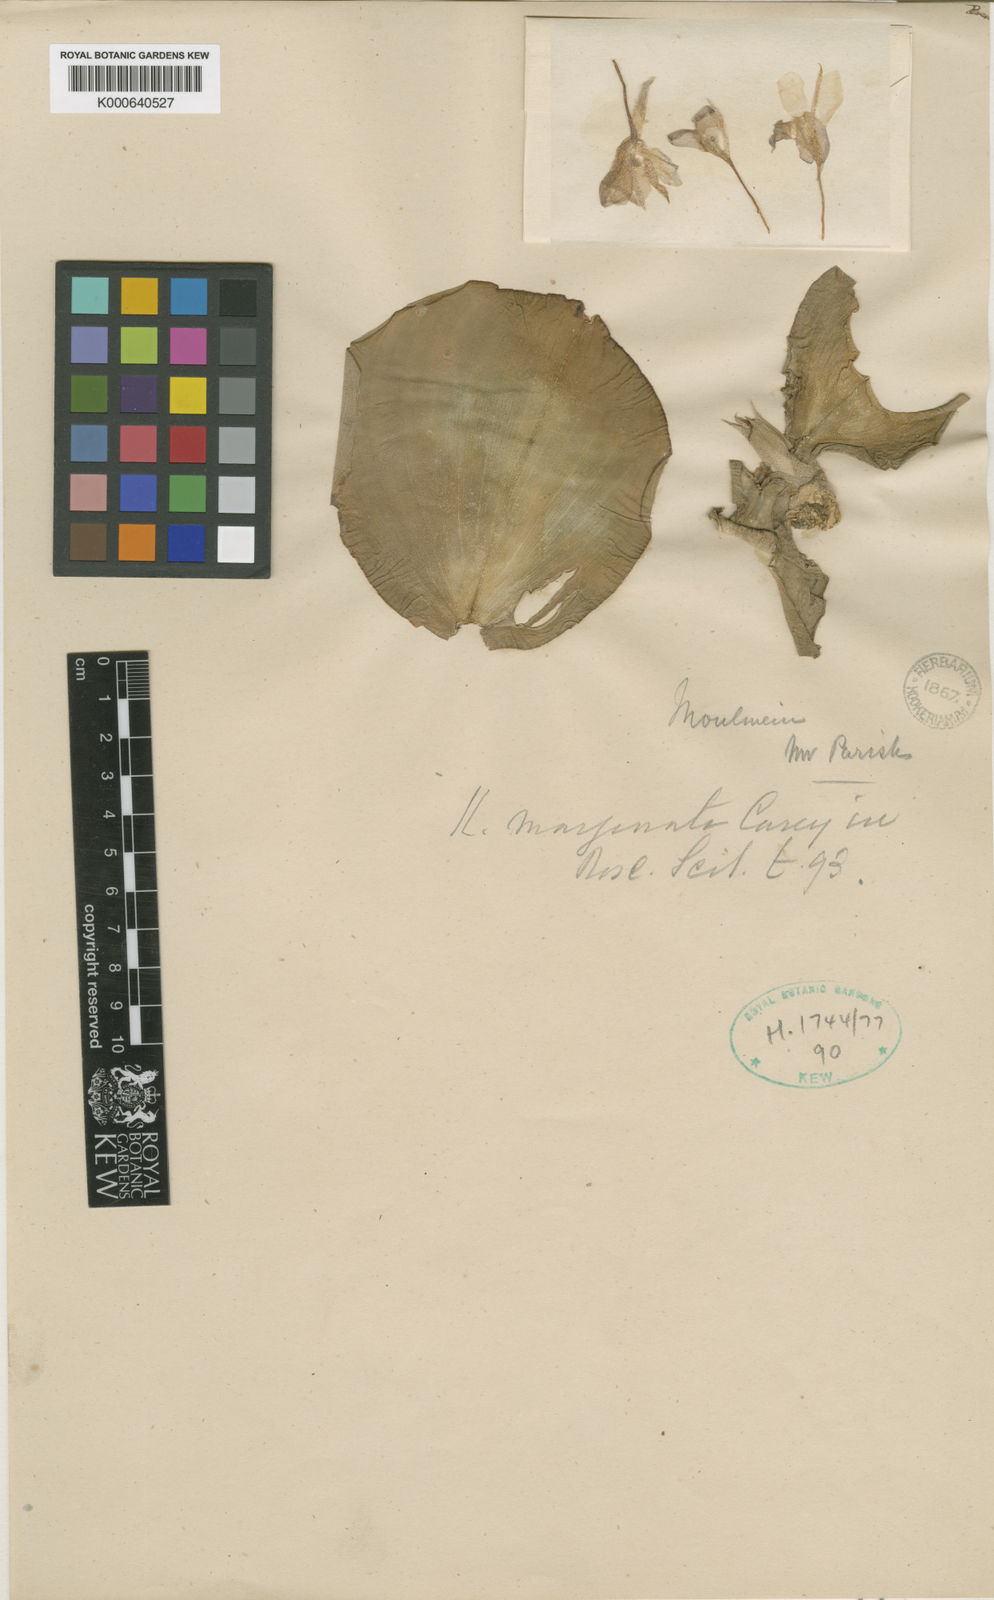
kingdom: Plantae
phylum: Tracheophyta
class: Liliopsida
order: Zingiberales
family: Zingiberaceae
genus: Kaempferia
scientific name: Kaempferia
